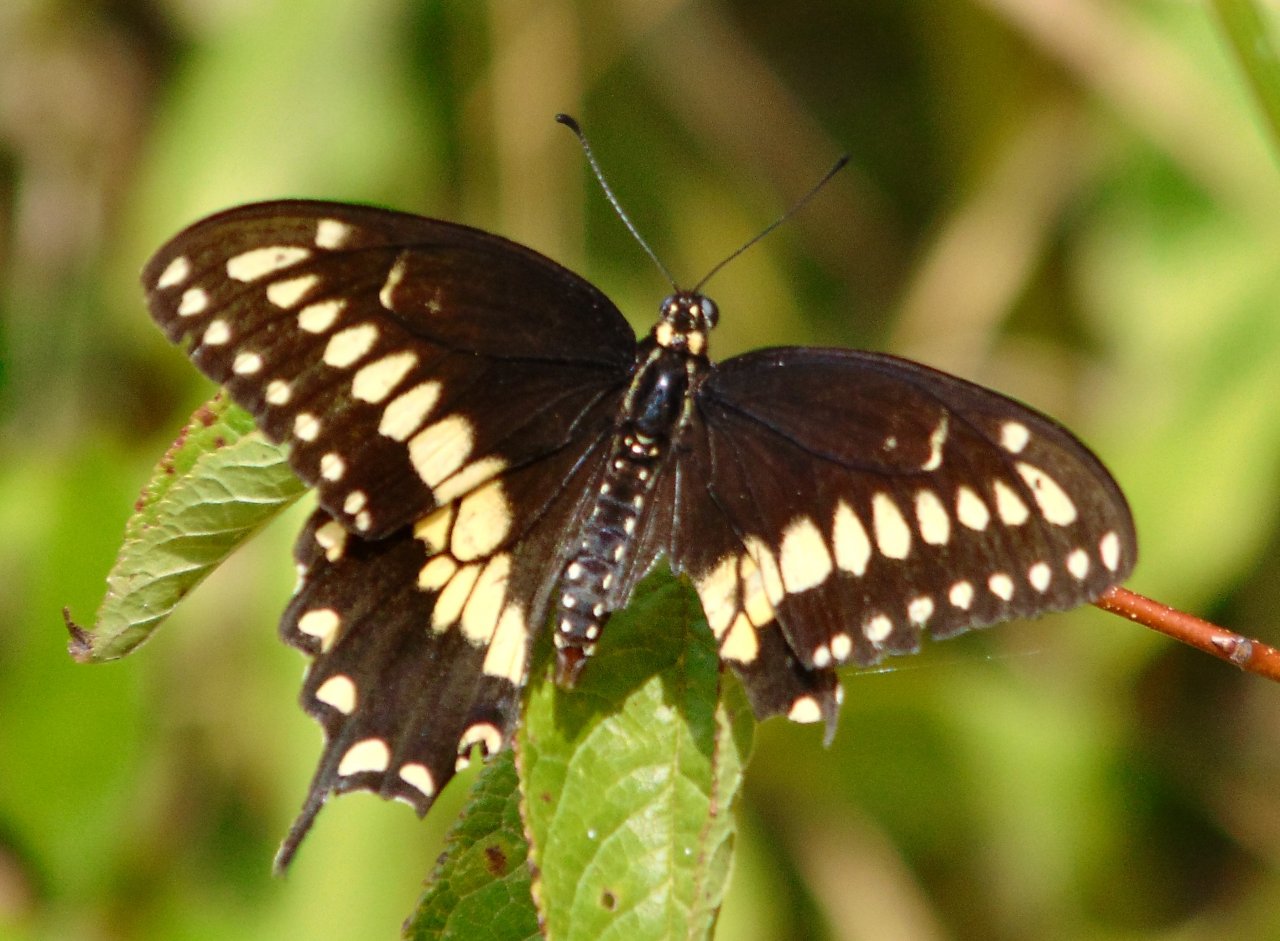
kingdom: Animalia
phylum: Arthropoda
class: Insecta
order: Lepidoptera
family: Papilionidae
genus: Papilio
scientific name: Papilio polyxenes
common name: Black Swallowtail
